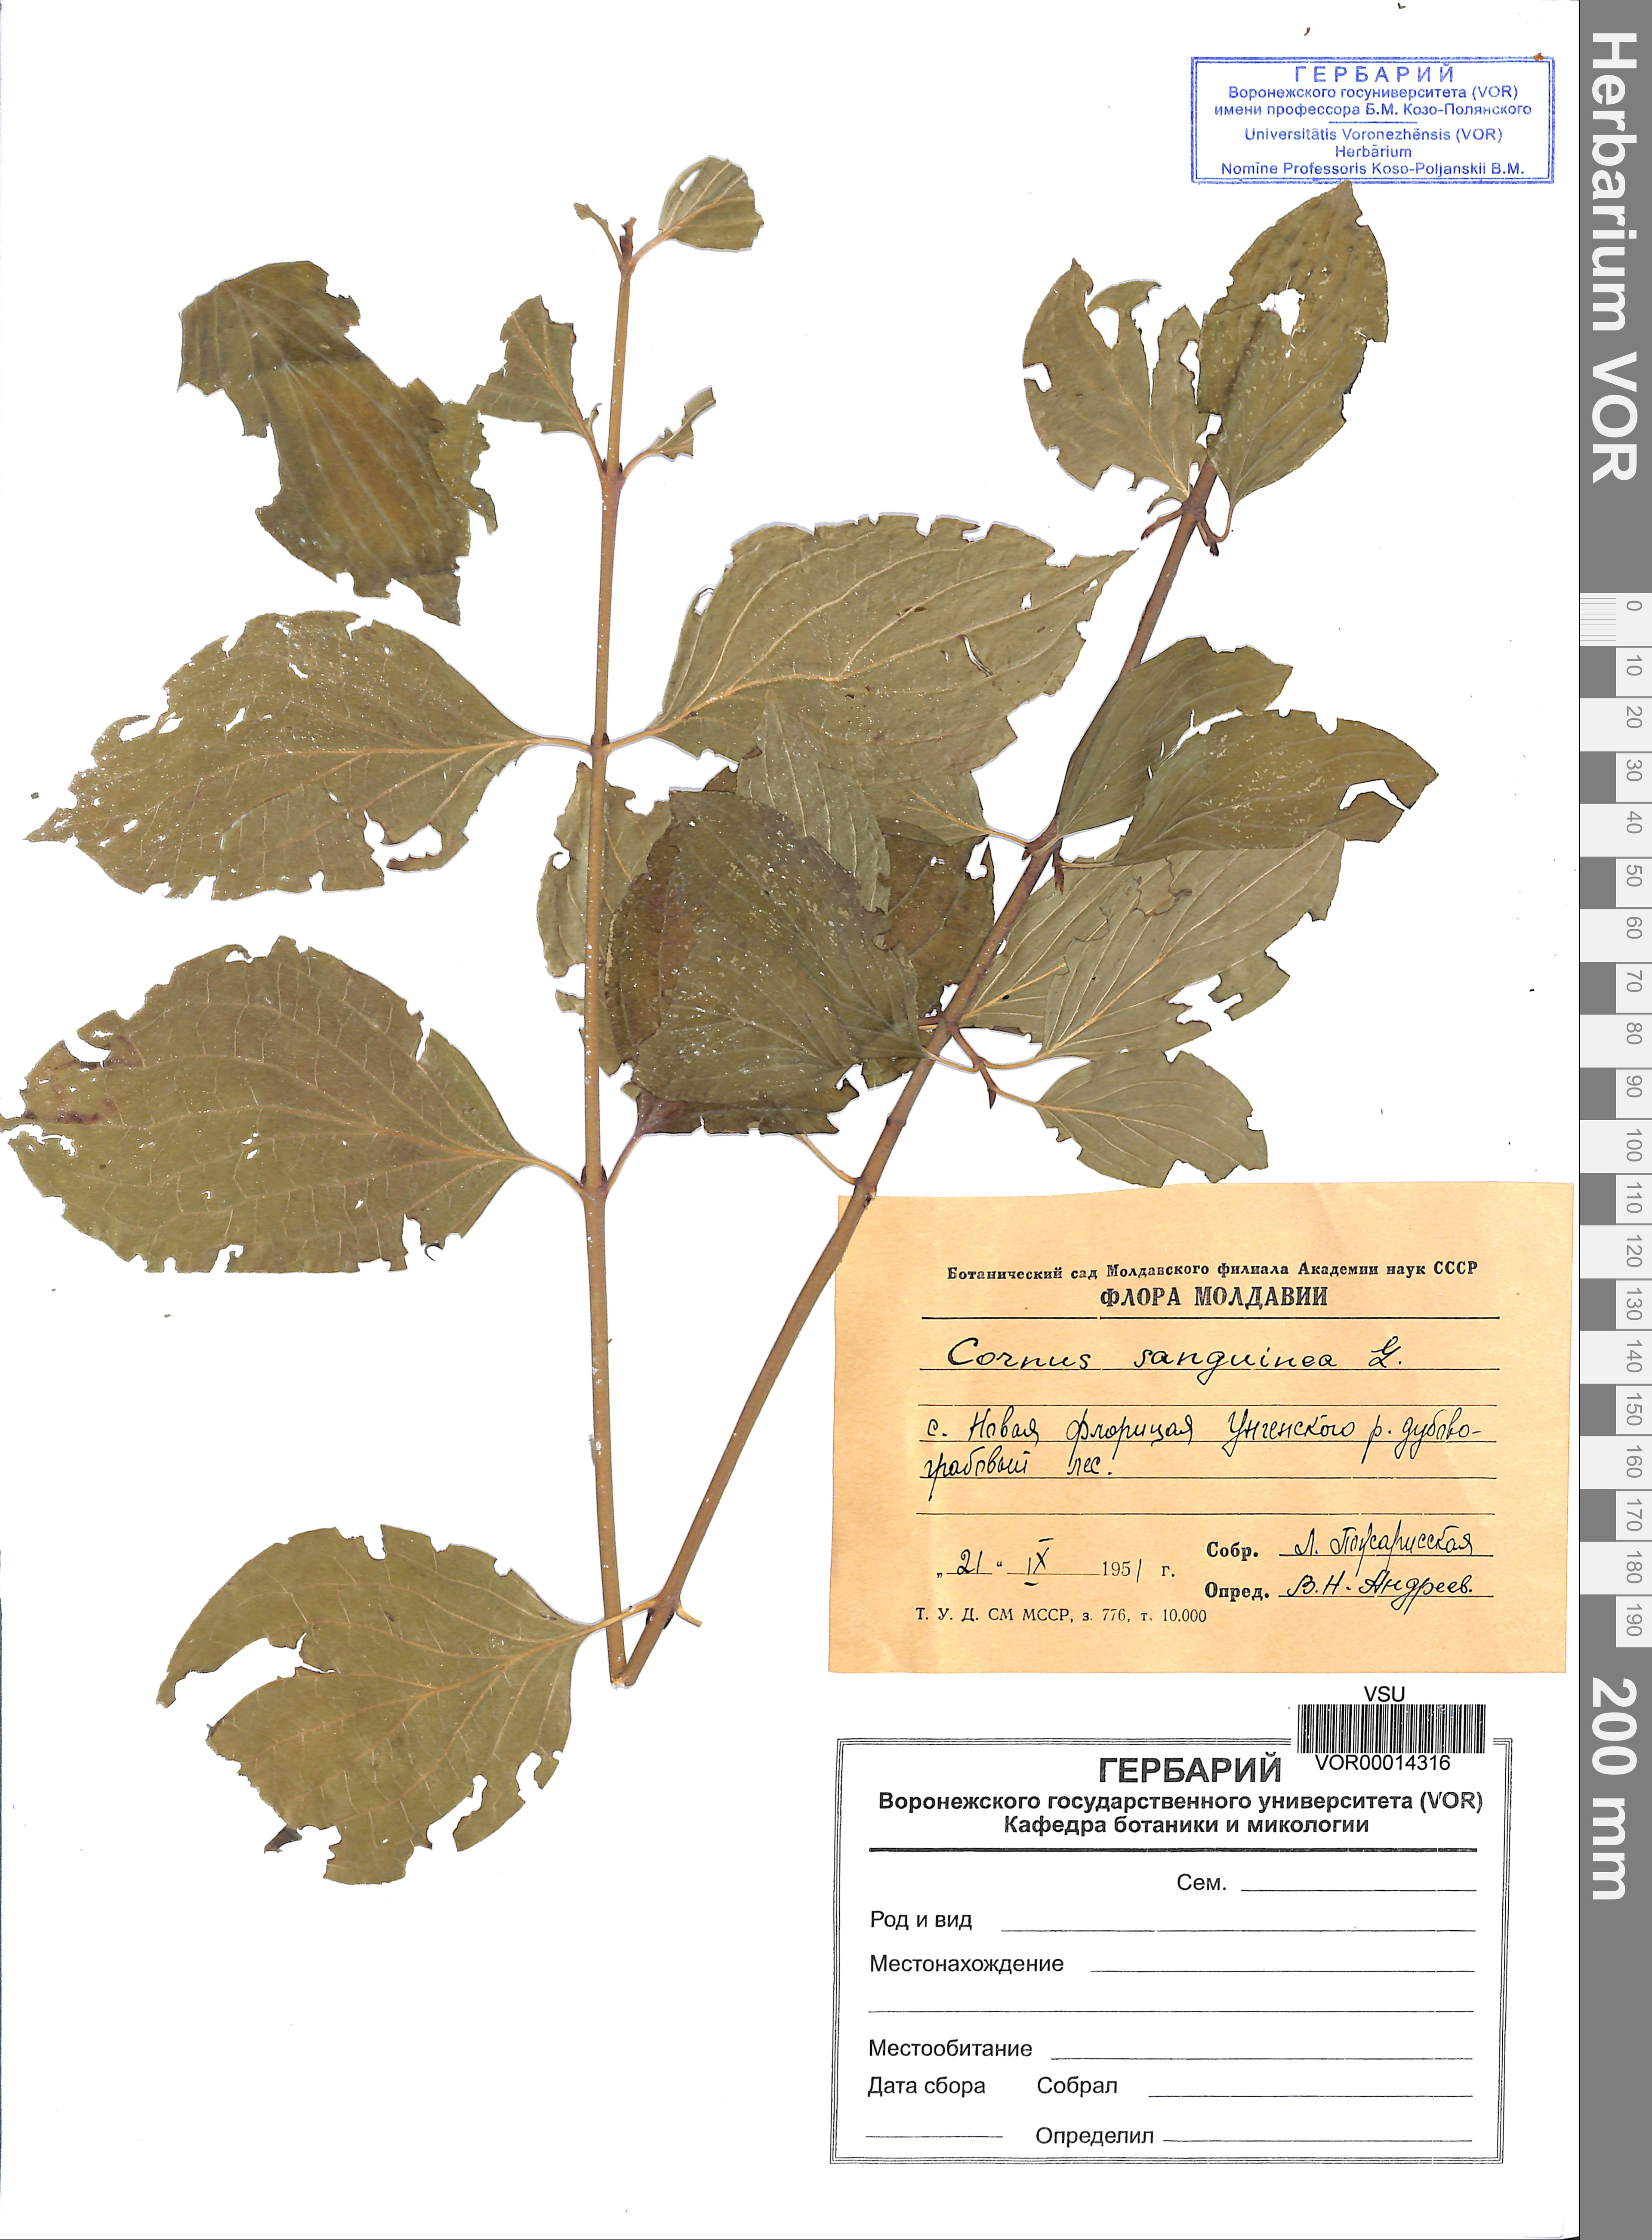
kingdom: Plantae
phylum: Tracheophyta
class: Magnoliopsida
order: Cornales
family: Cornaceae
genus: Cornus
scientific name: Cornus sanguinea
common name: Dogwood
